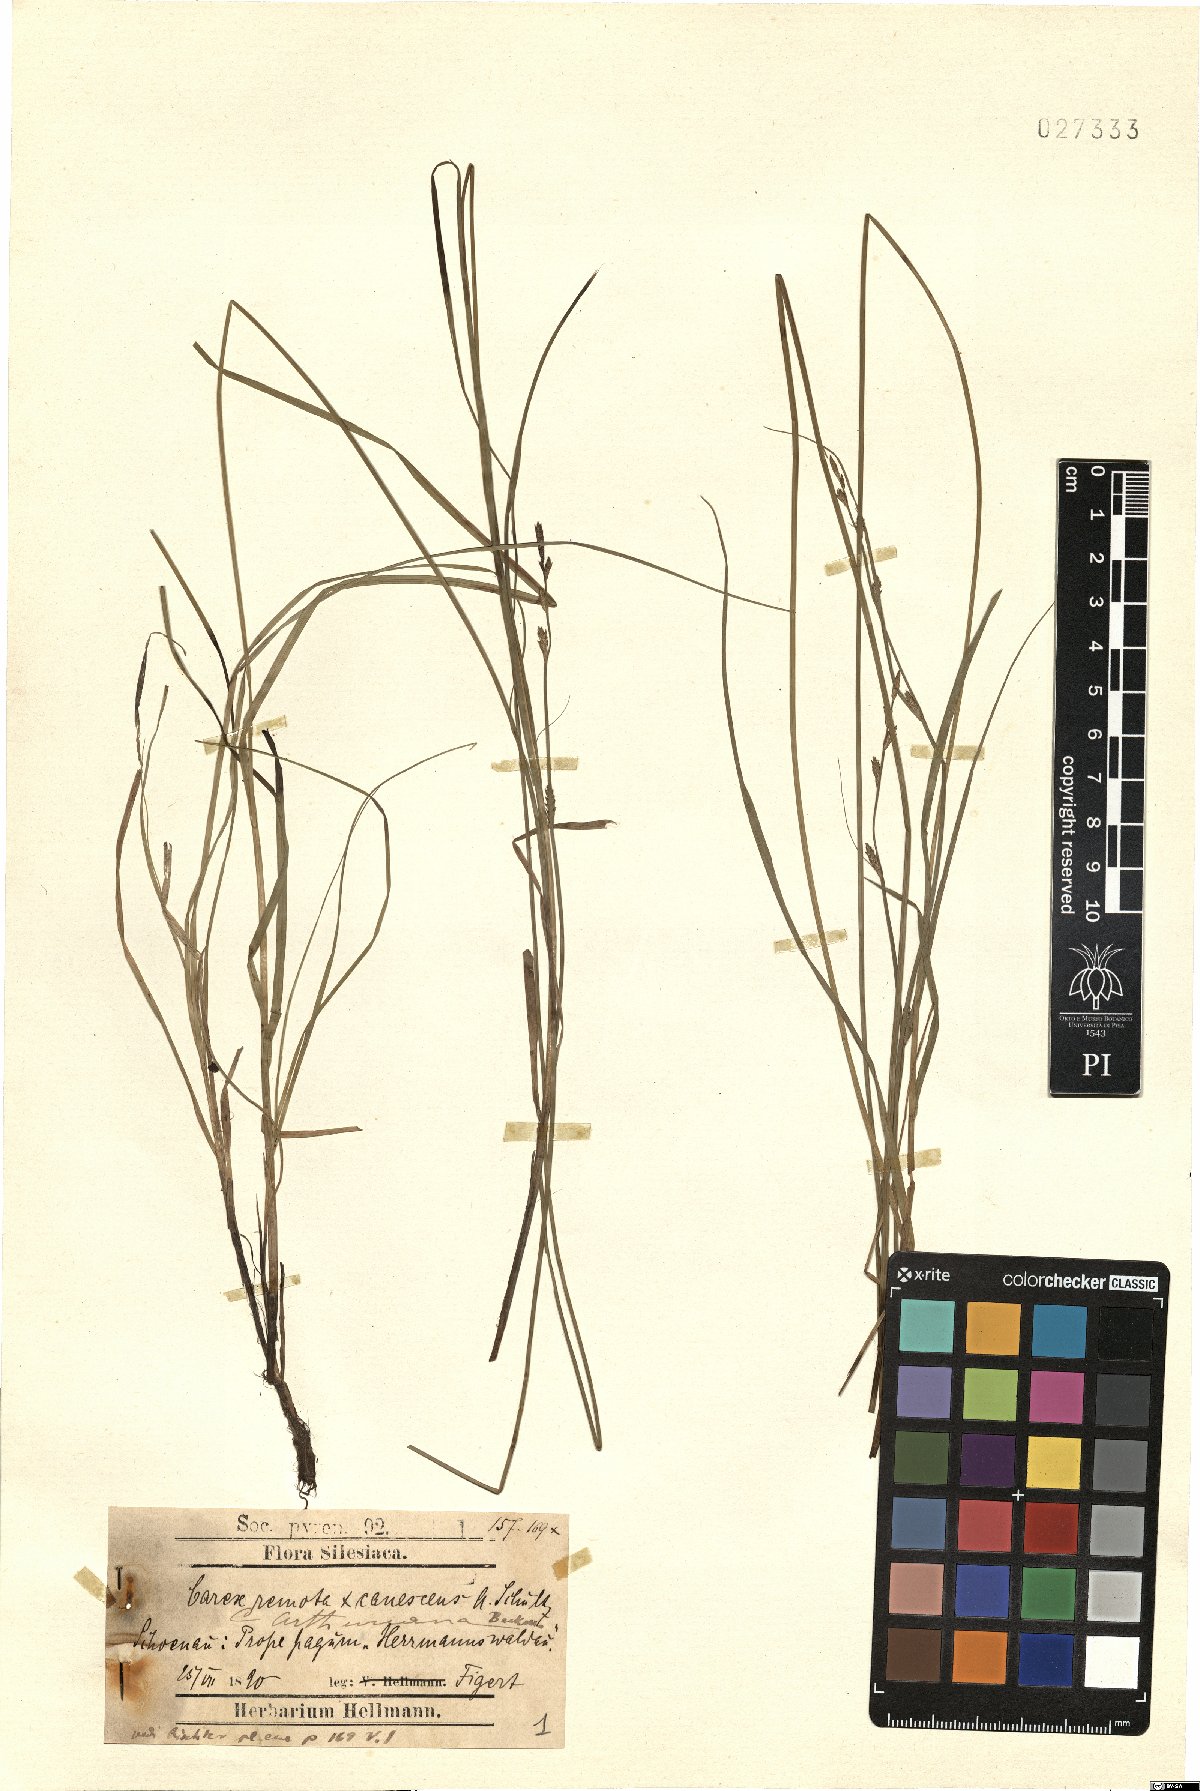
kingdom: Plantae
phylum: Tracheophyta
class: Liliopsida
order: Poales
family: Cyperaceae
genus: Carex
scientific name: Carex arthuriana
